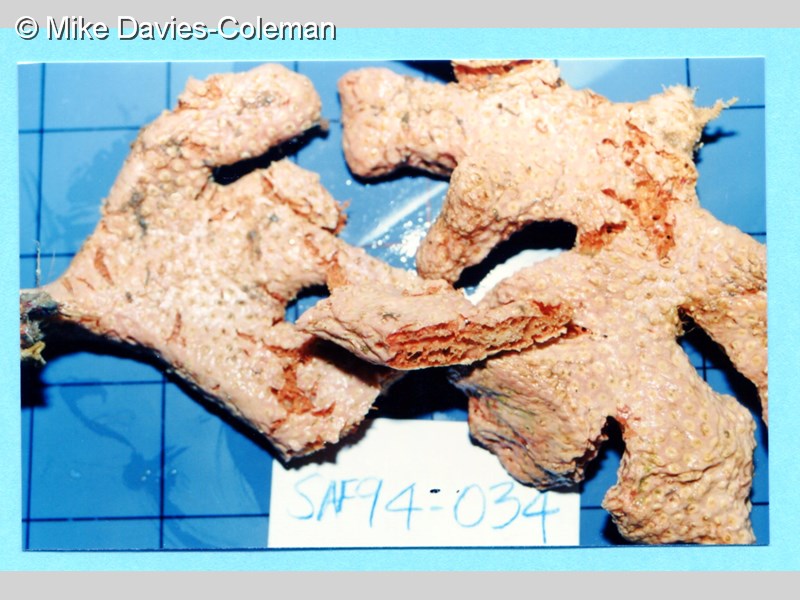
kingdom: Animalia
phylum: Porifera
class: Demospongiae
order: Poecilosclerida
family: Crellidae
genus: Crella
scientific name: Crella erecta
